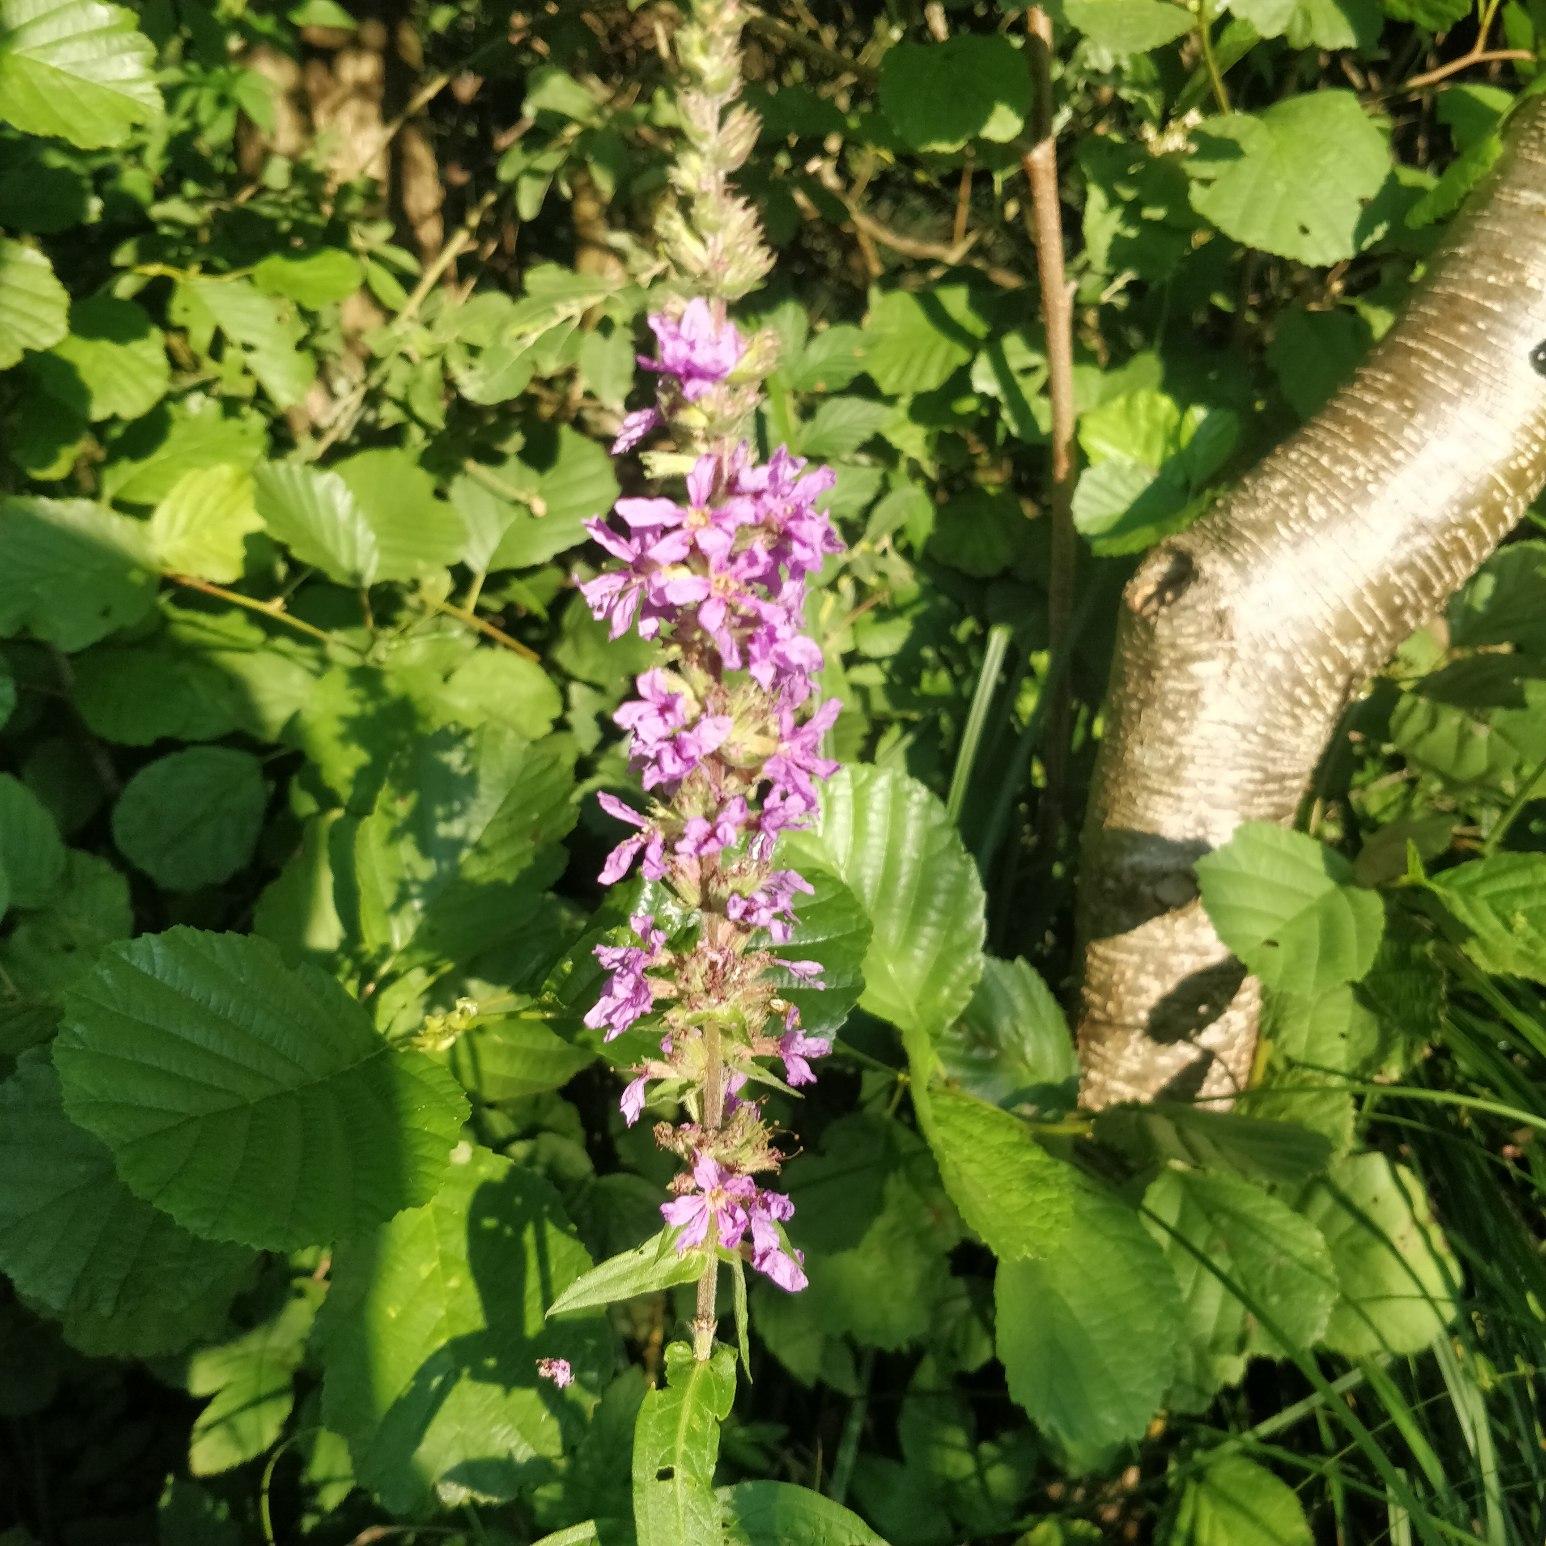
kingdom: Plantae
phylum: Tracheophyta
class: Magnoliopsida
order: Myrtales
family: Lythraceae
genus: Lythrum
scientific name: Lythrum salicaria
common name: Kattehale
